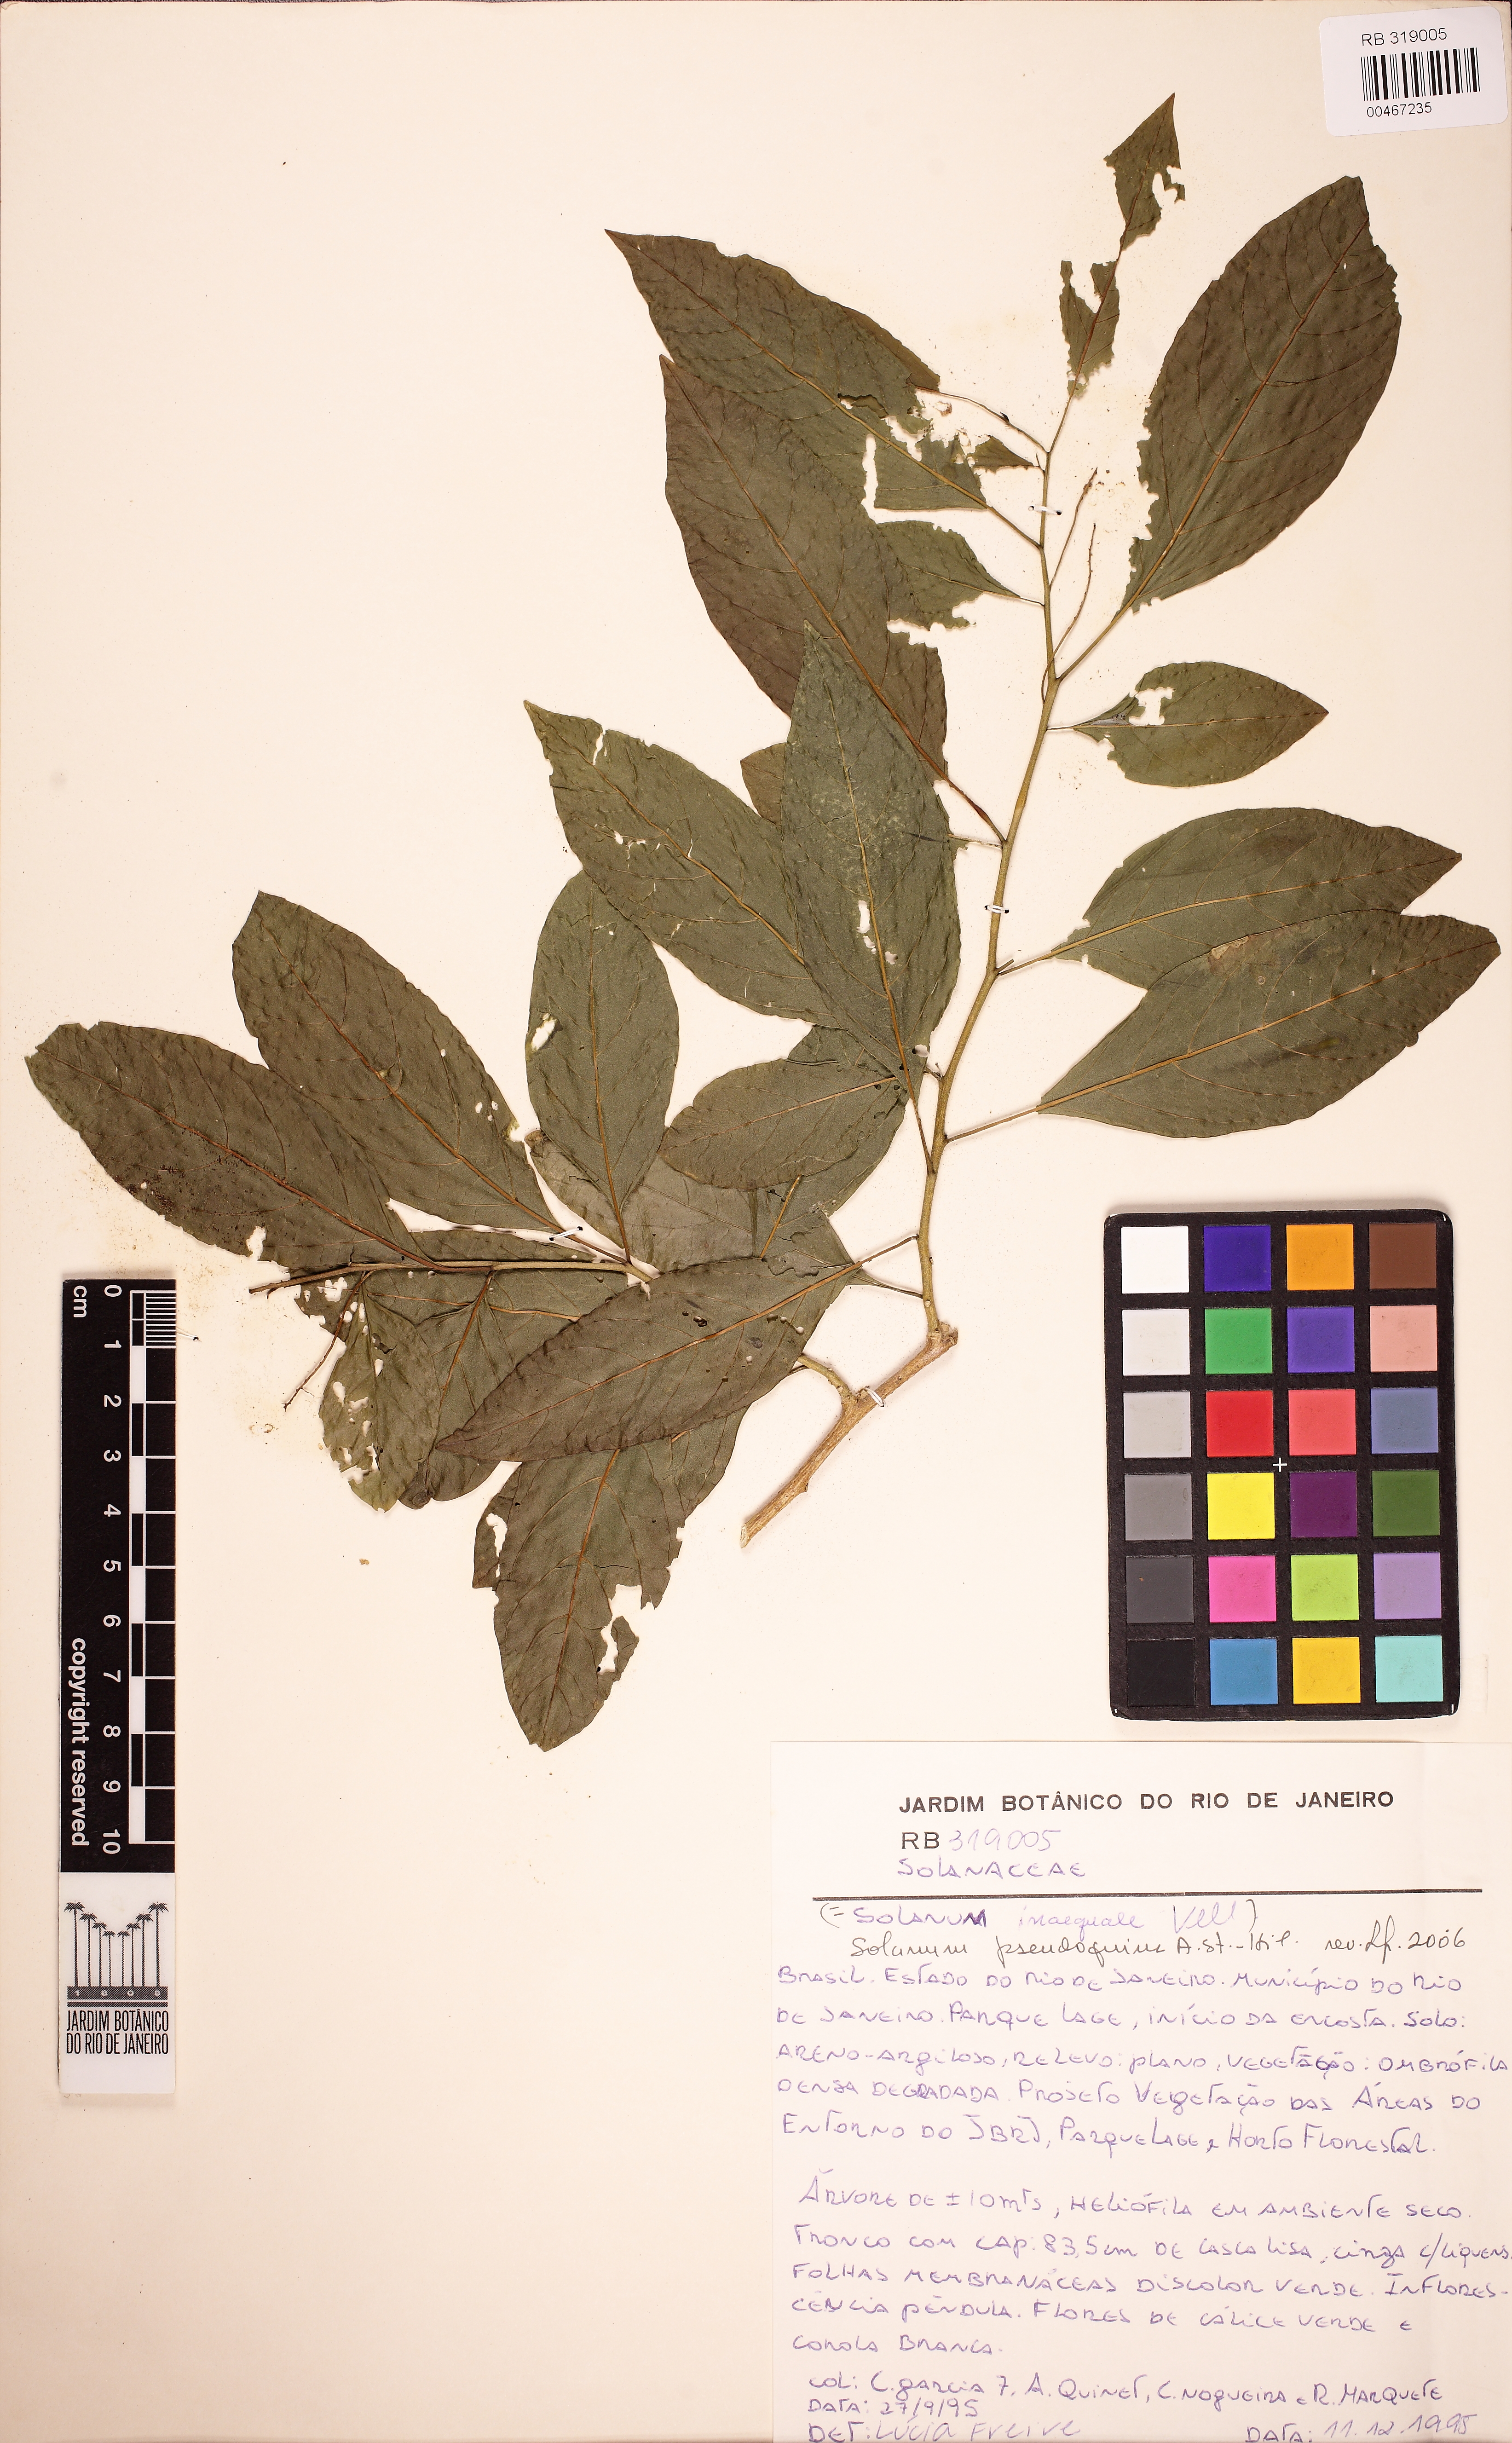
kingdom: Plantae
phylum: Tracheophyta
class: Magnoliopsida
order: Solanales
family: Solanaceae
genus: Solanum
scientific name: Solanum pseudoquina
